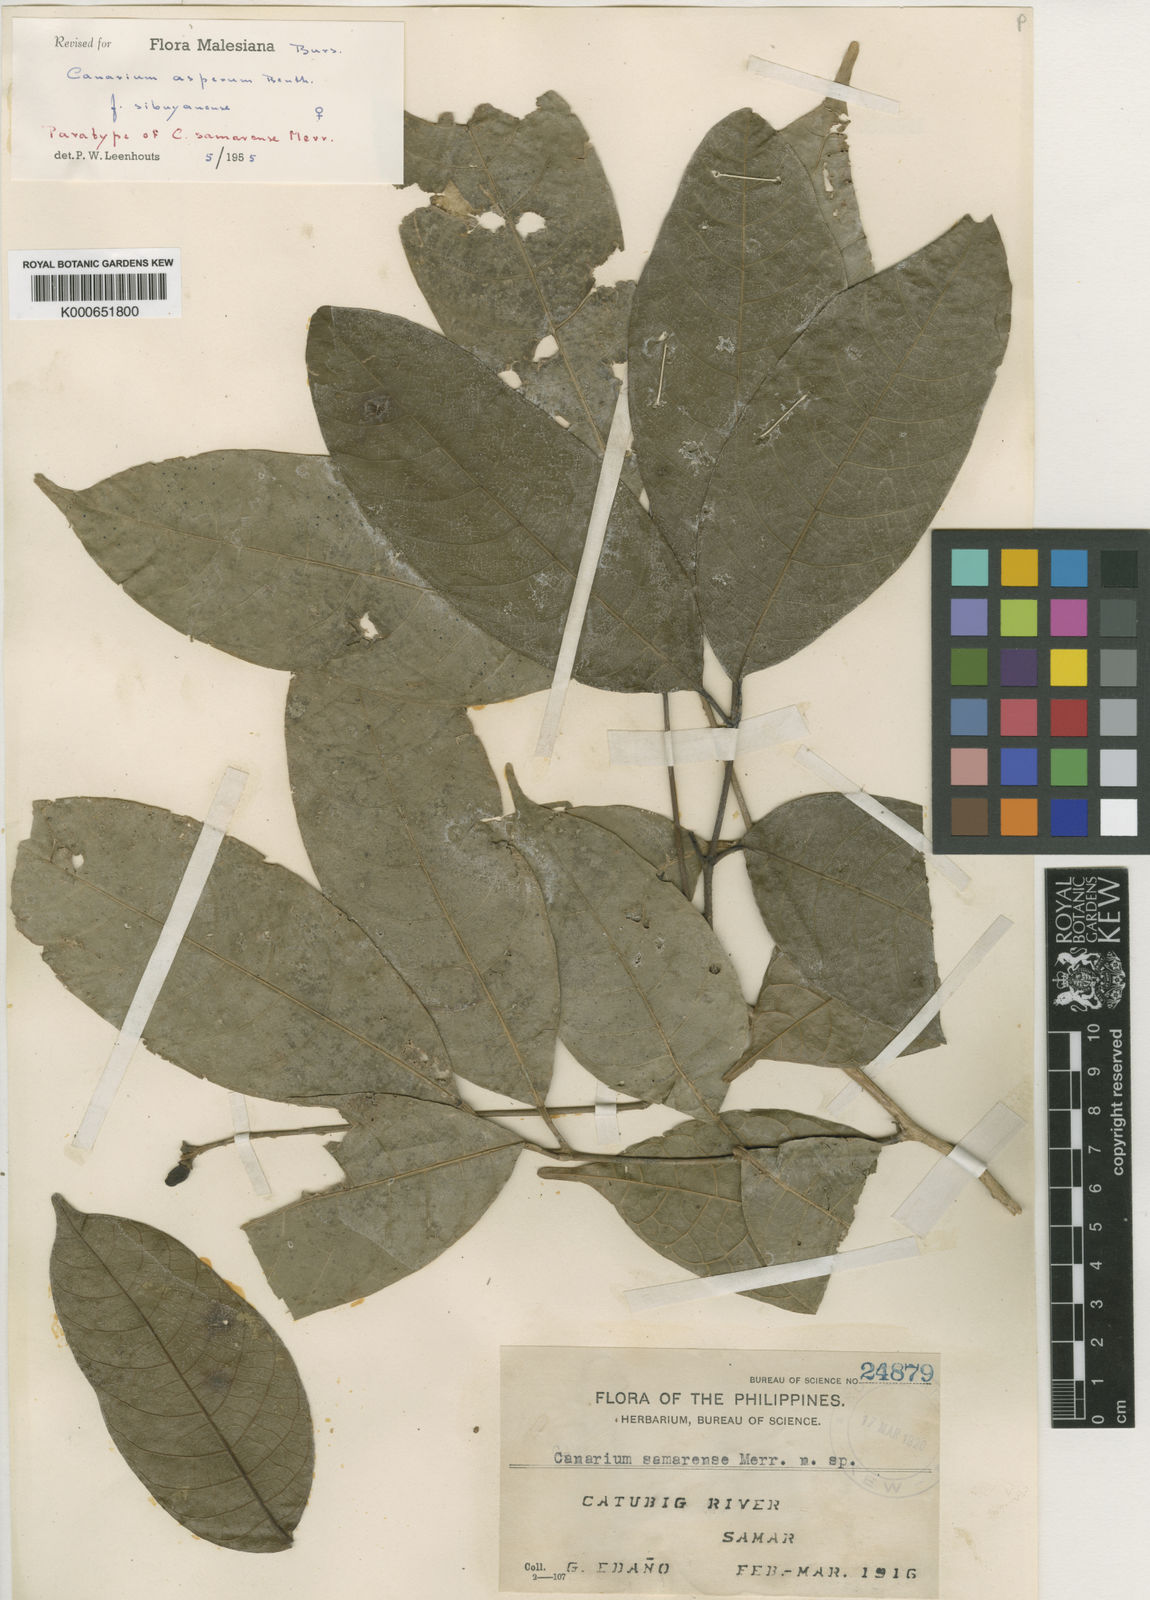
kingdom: Plantae
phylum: Tracheophyta
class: Magnoliopsida
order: Sapindales
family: Burseraceae
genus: Canarium
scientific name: Canarium asperum
